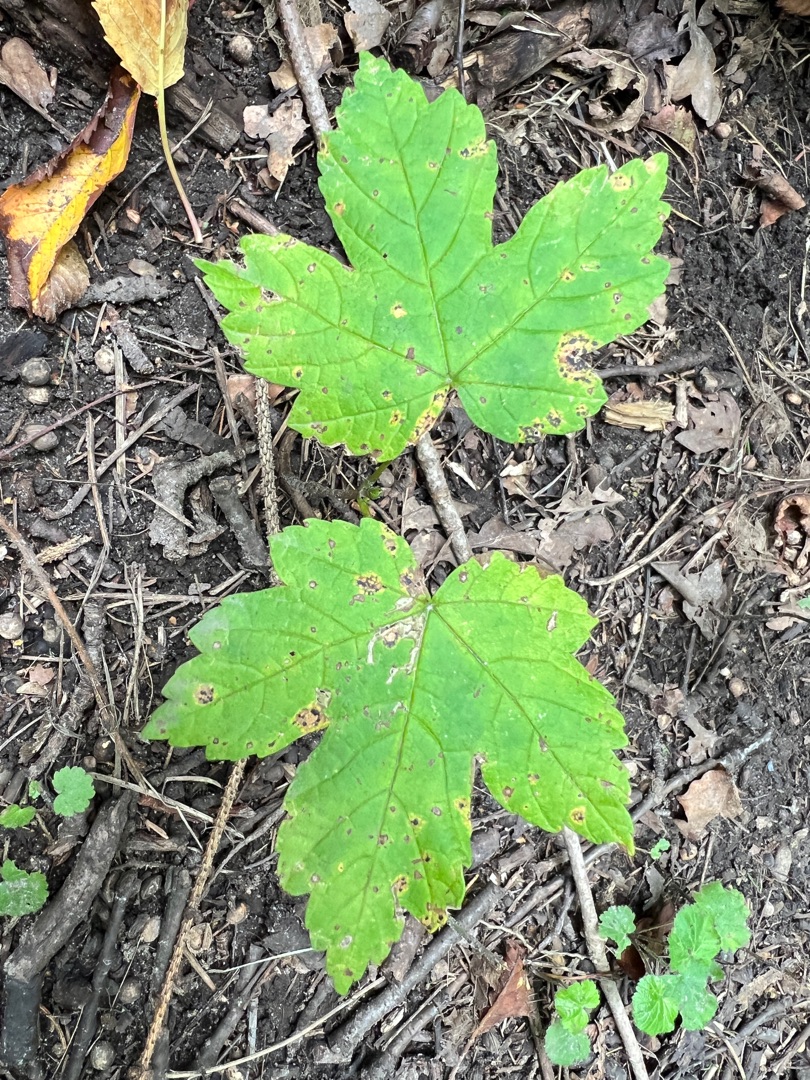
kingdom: Plantae
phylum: Tracheophyta
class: Magnoliopsida
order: Sapindales
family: Sapindaceae
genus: Acer
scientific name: Acer pseudoplatanus
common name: Ahorn
